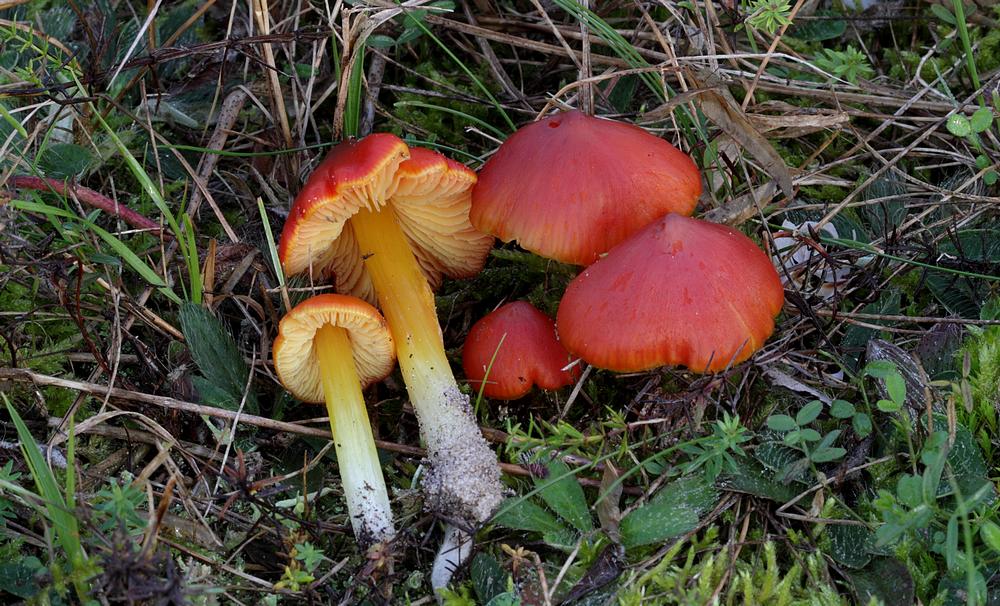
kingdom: Fungi
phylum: Basidiomycota
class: Agaricomycetes
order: Agaricales
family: Hygrophoraceae
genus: Hygrocybe
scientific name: Hygrocybe conicoides
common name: klit-vokshat
